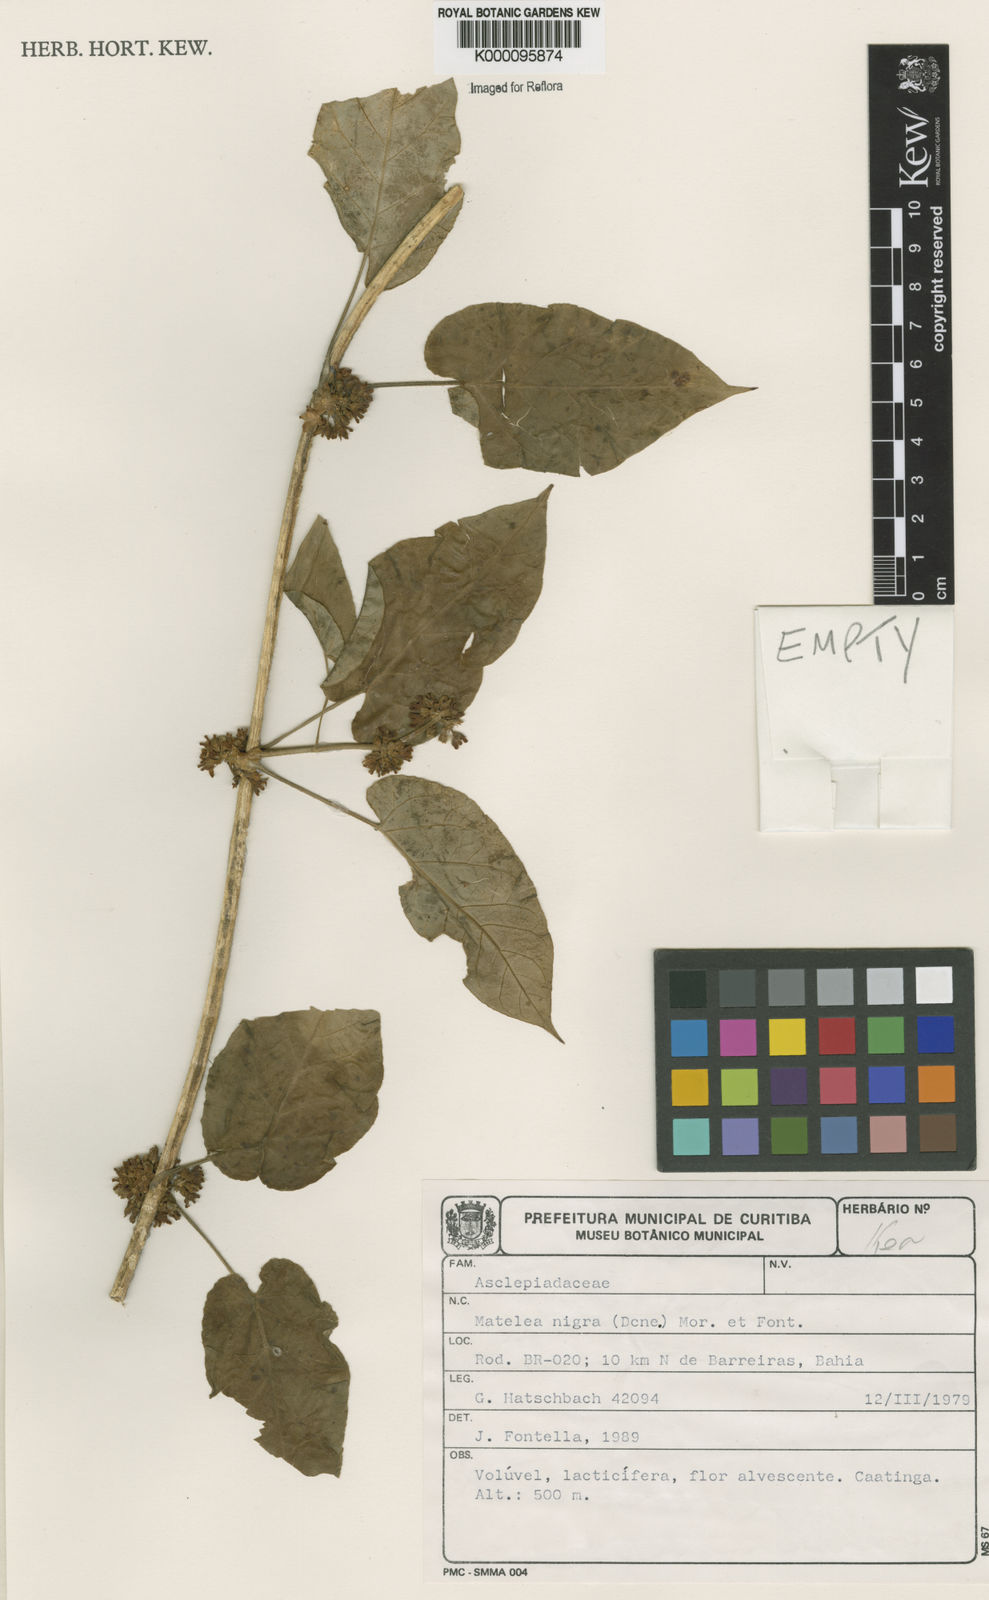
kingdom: Plantae
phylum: Tracheophyta
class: Magnoliopsida
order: Gentianales
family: Apocynaceae
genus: Ibatia
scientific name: Ibatia nigra
